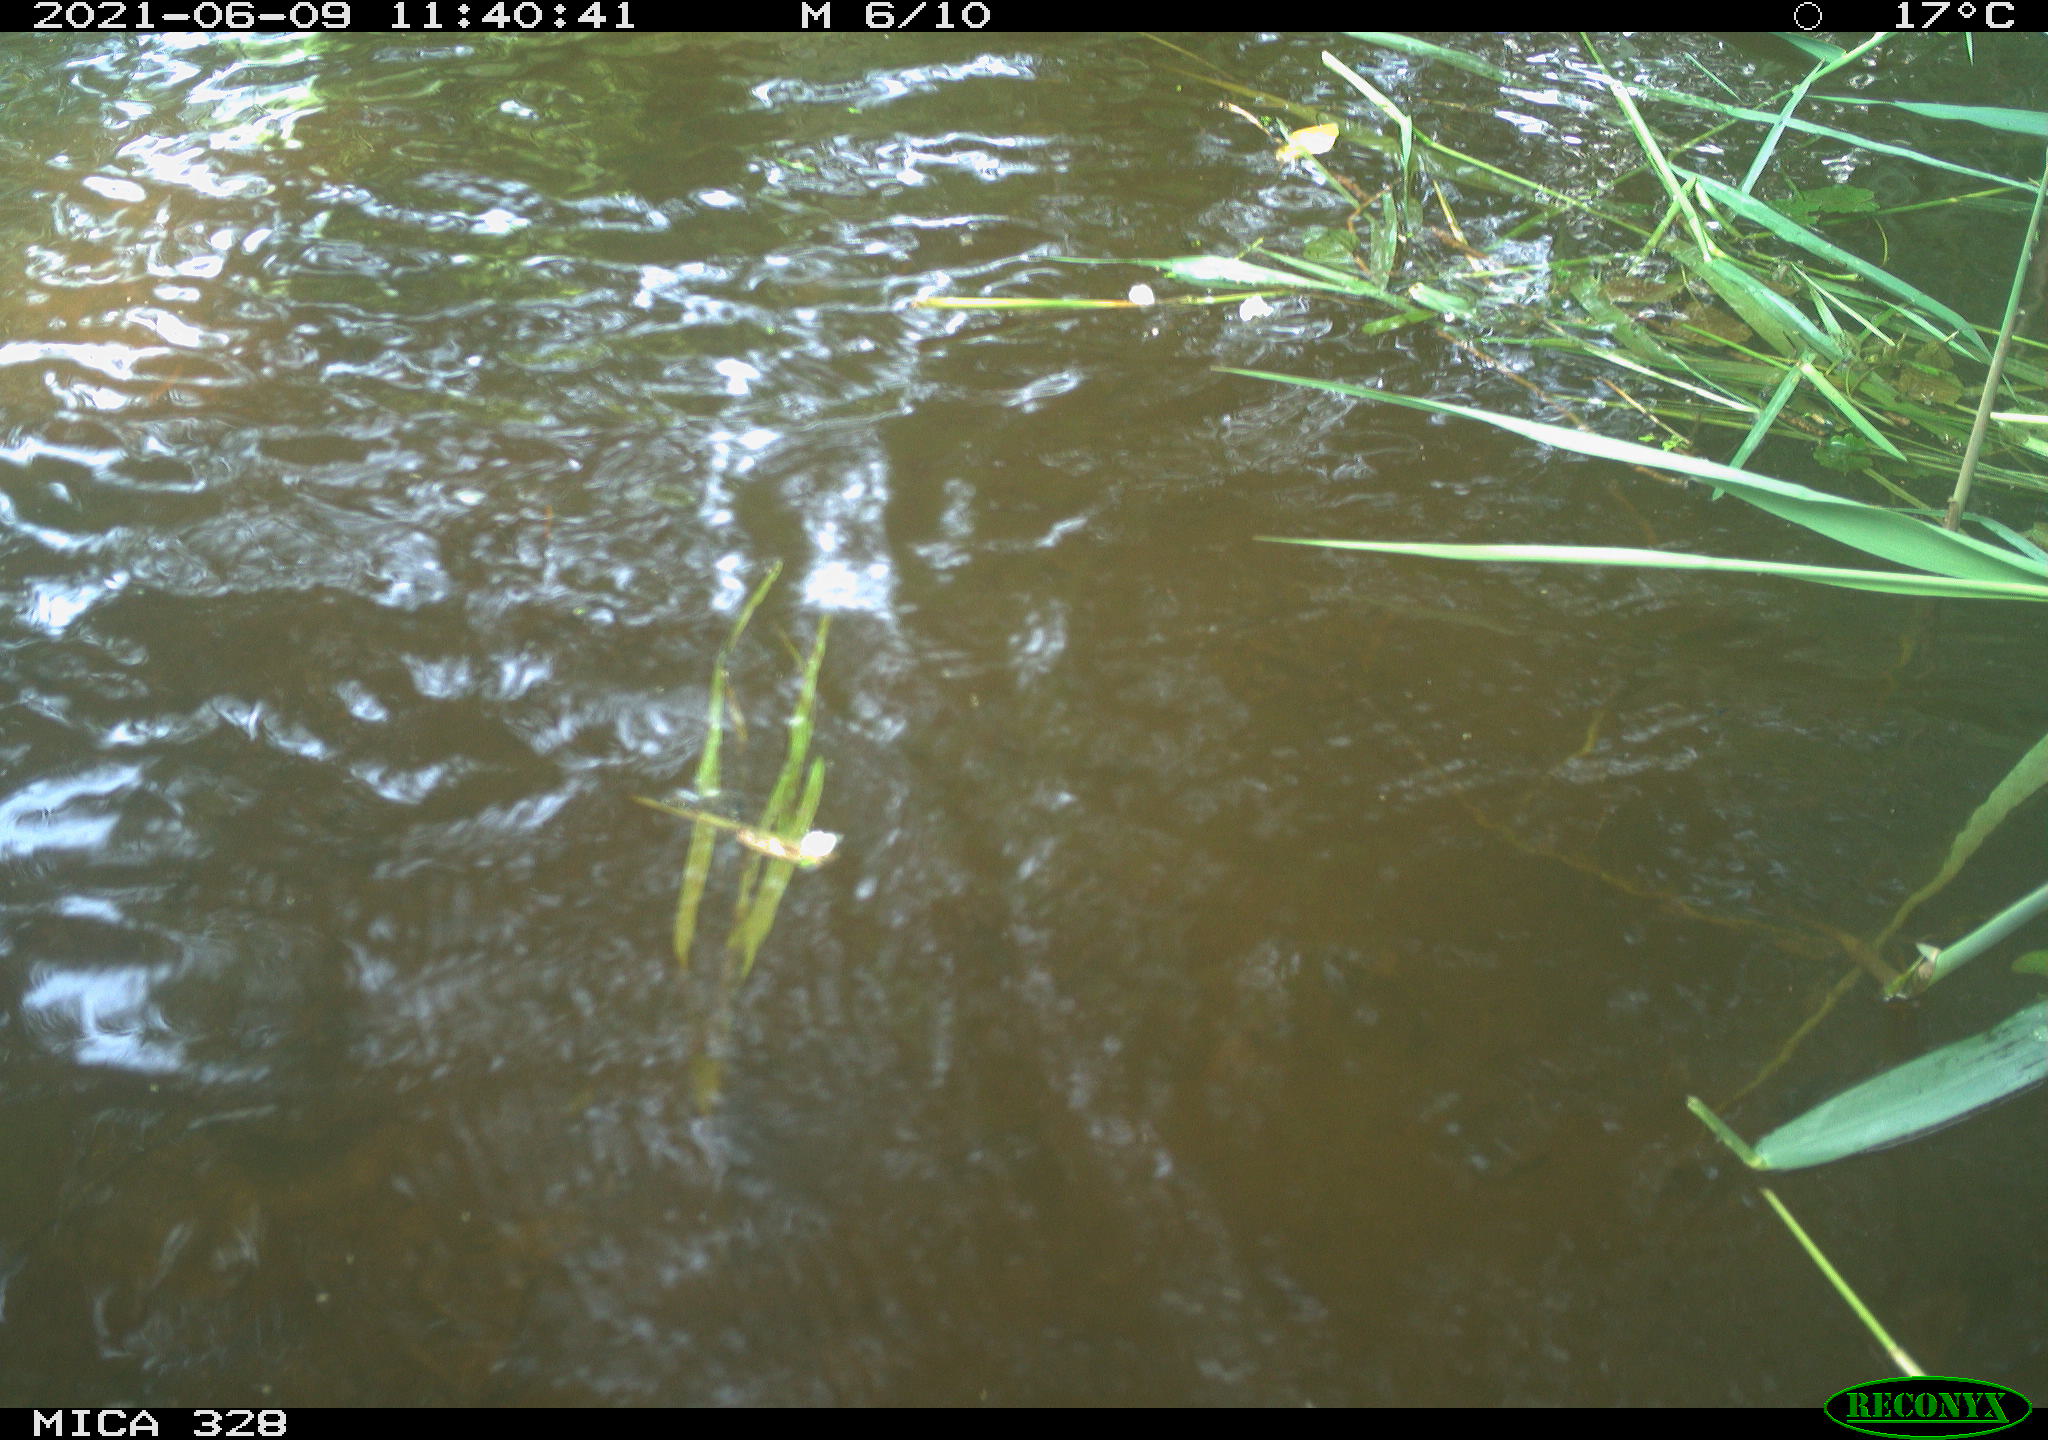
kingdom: Animalia
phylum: Chordata
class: Aves
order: Anseriformes
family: Anatidae
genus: Aix
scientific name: Aix galericulata
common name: Mandarin duck
